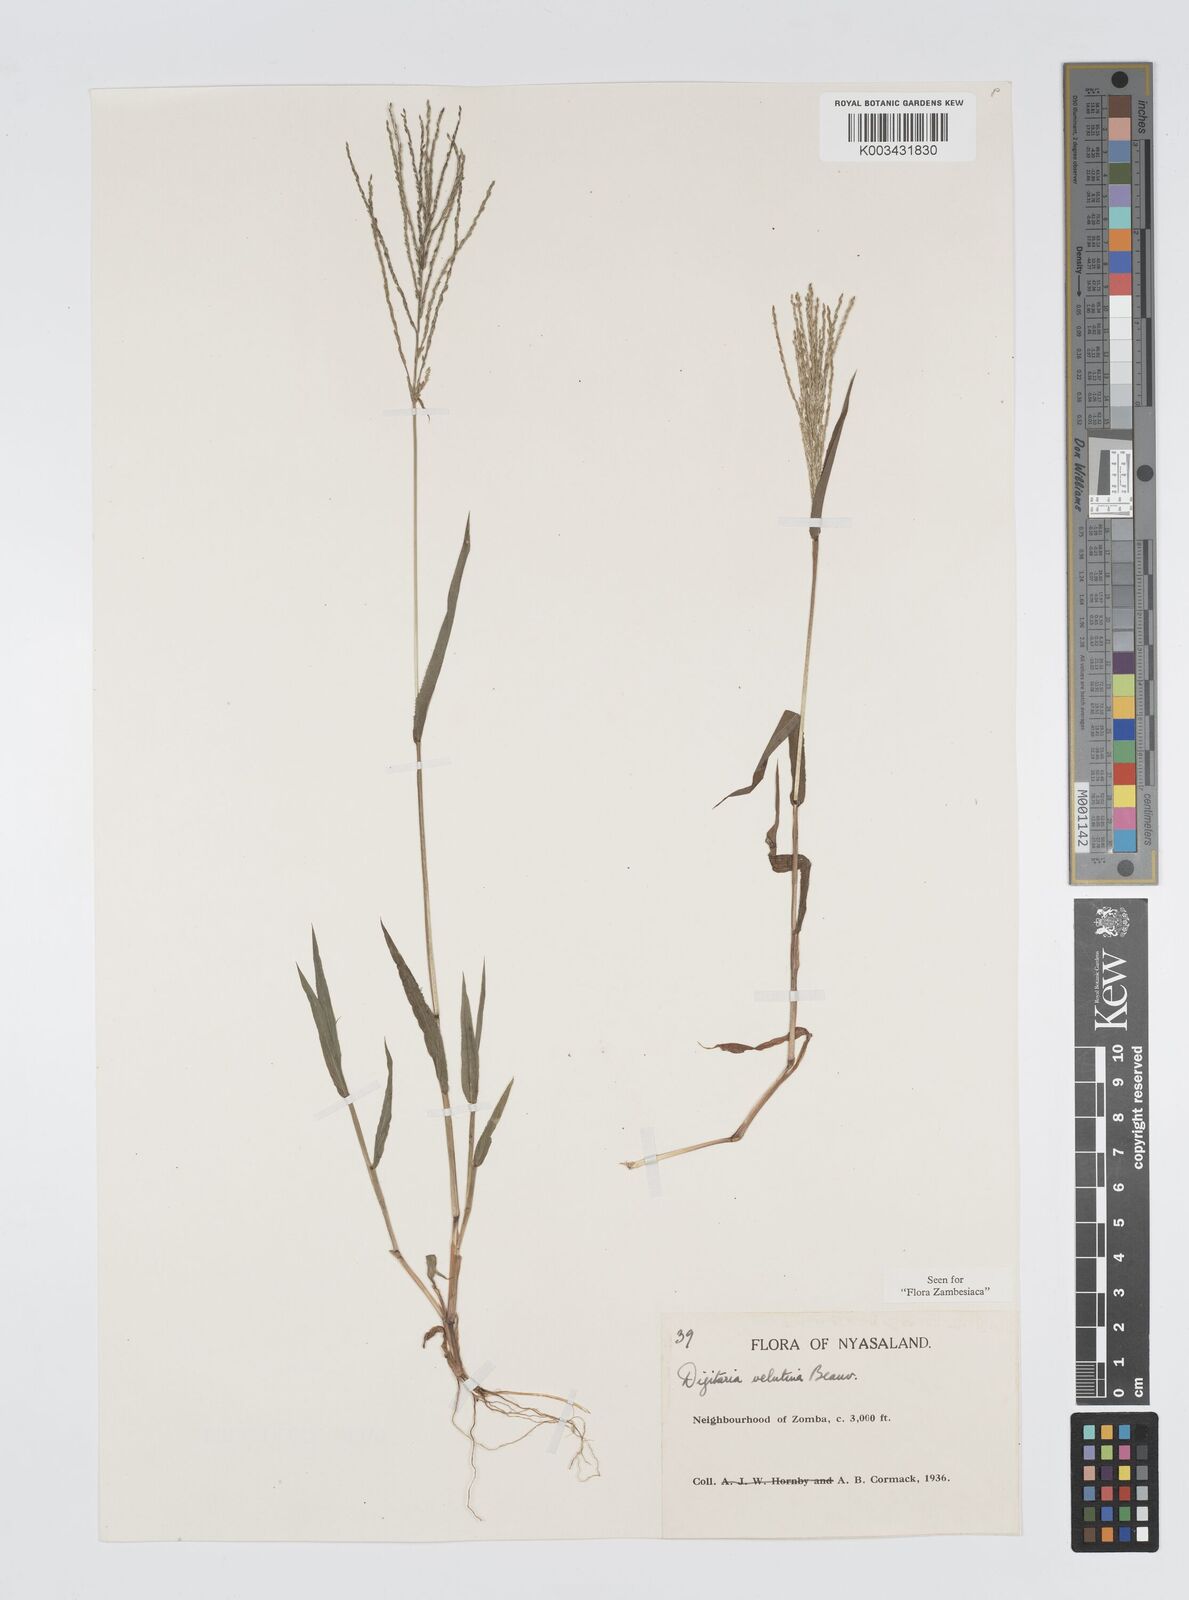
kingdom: Plantae
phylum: Tracheophyta
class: Liliopsida
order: Poales
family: Poaceae
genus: Digitaria
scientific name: Digitaria velutina
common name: Long-plume finger grass
